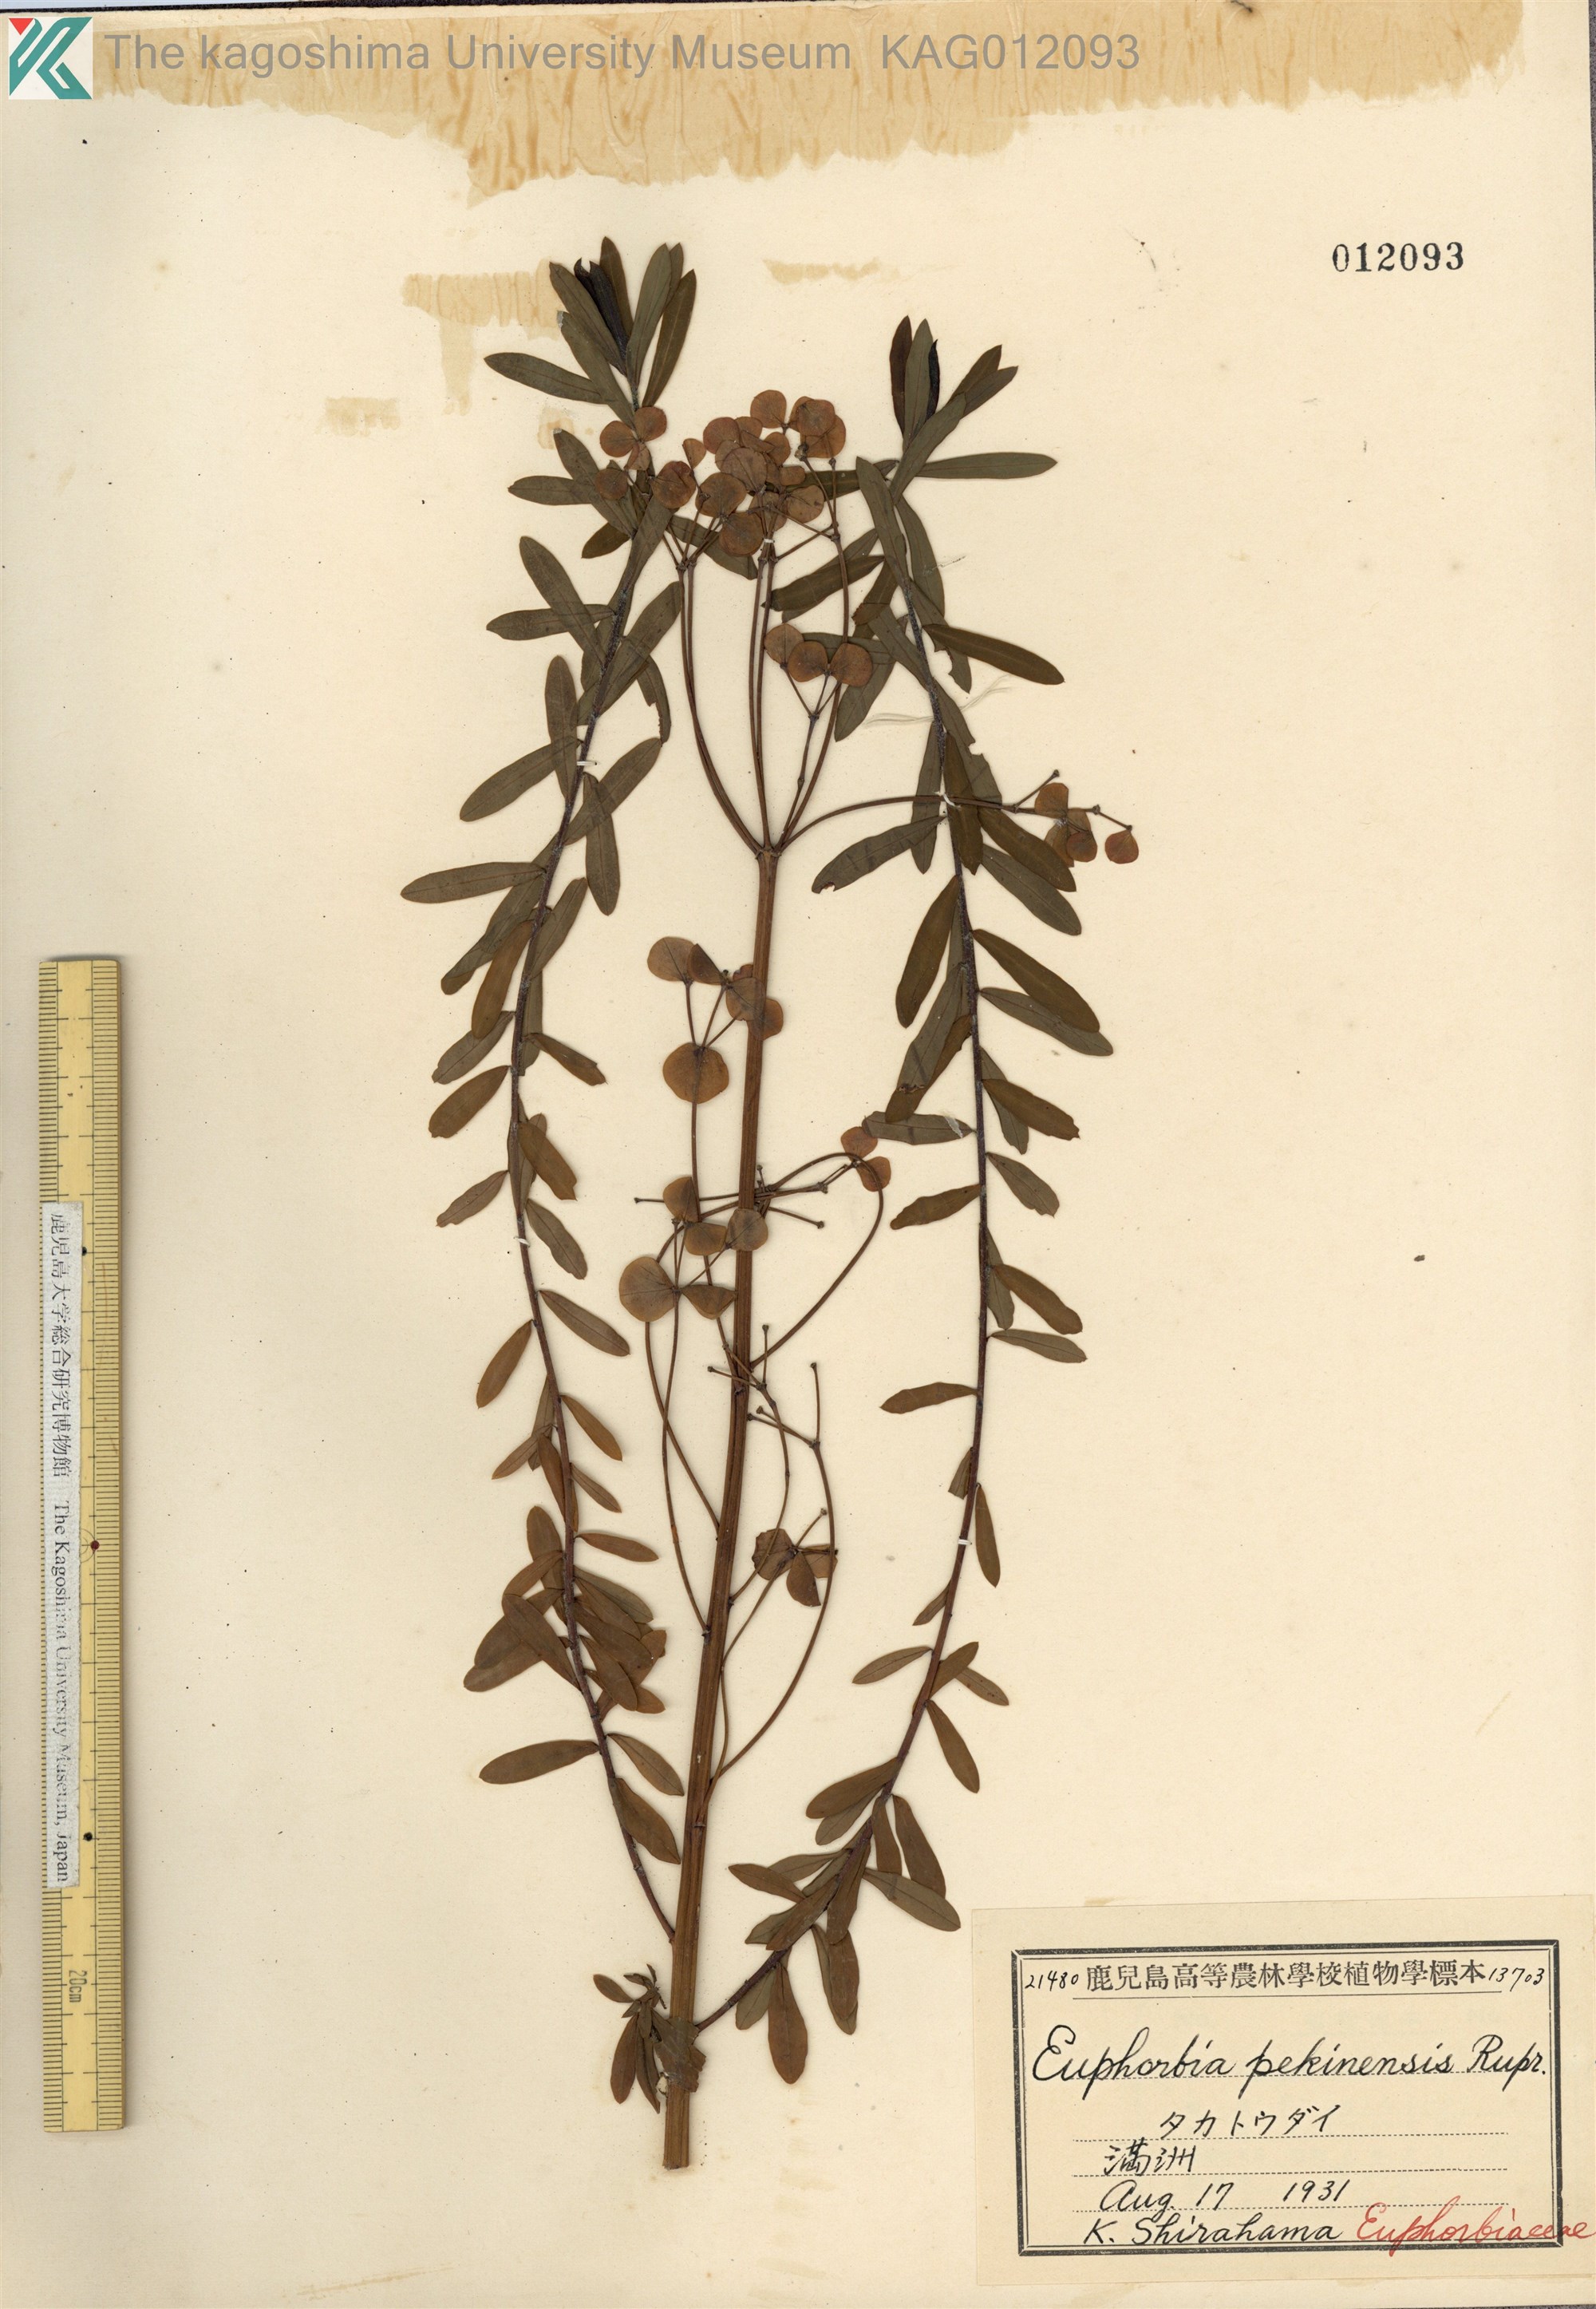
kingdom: Plantae
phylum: Tracheophyta
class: Magnoliopsida
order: Malpighiales
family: Euphorbiaceae
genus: Euphorbia
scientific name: Euphorbia pekinensis
